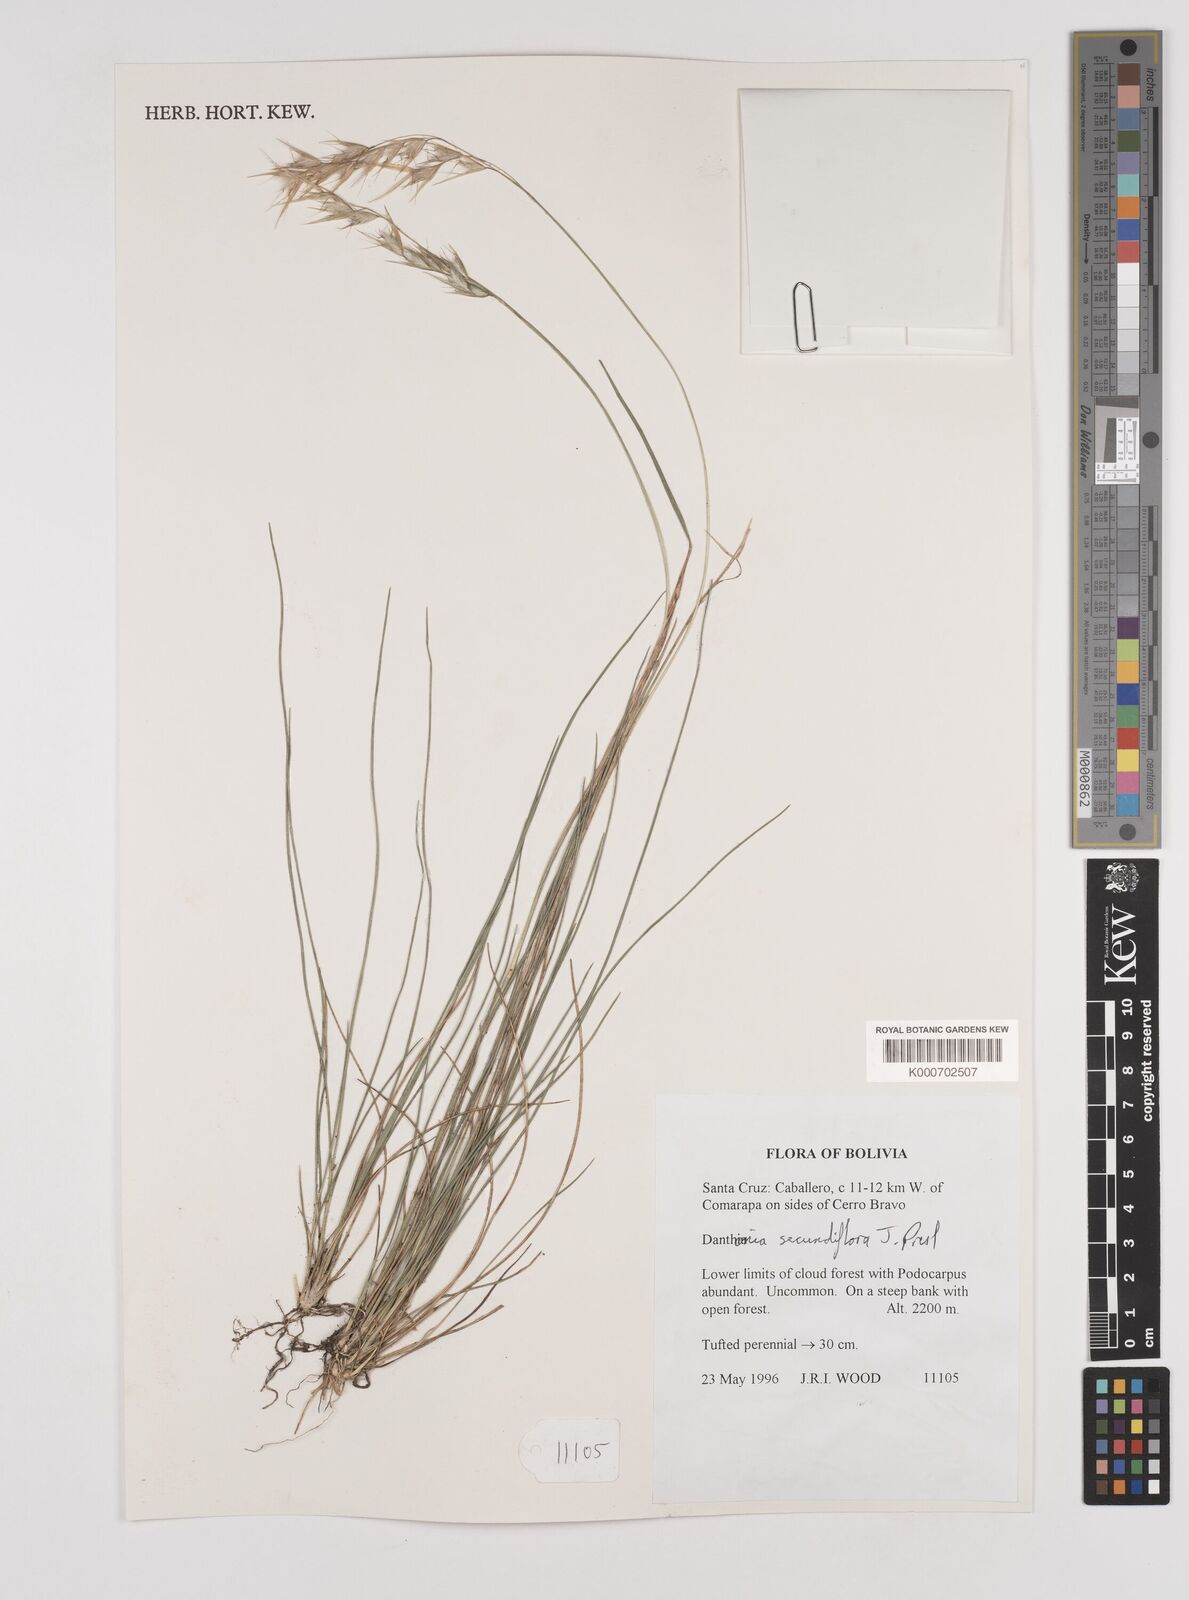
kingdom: Plantae
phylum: Tracheophyta
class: Liliopsida
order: Poales
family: Poaceae
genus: Danthonia
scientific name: Danthonia secundiflora
